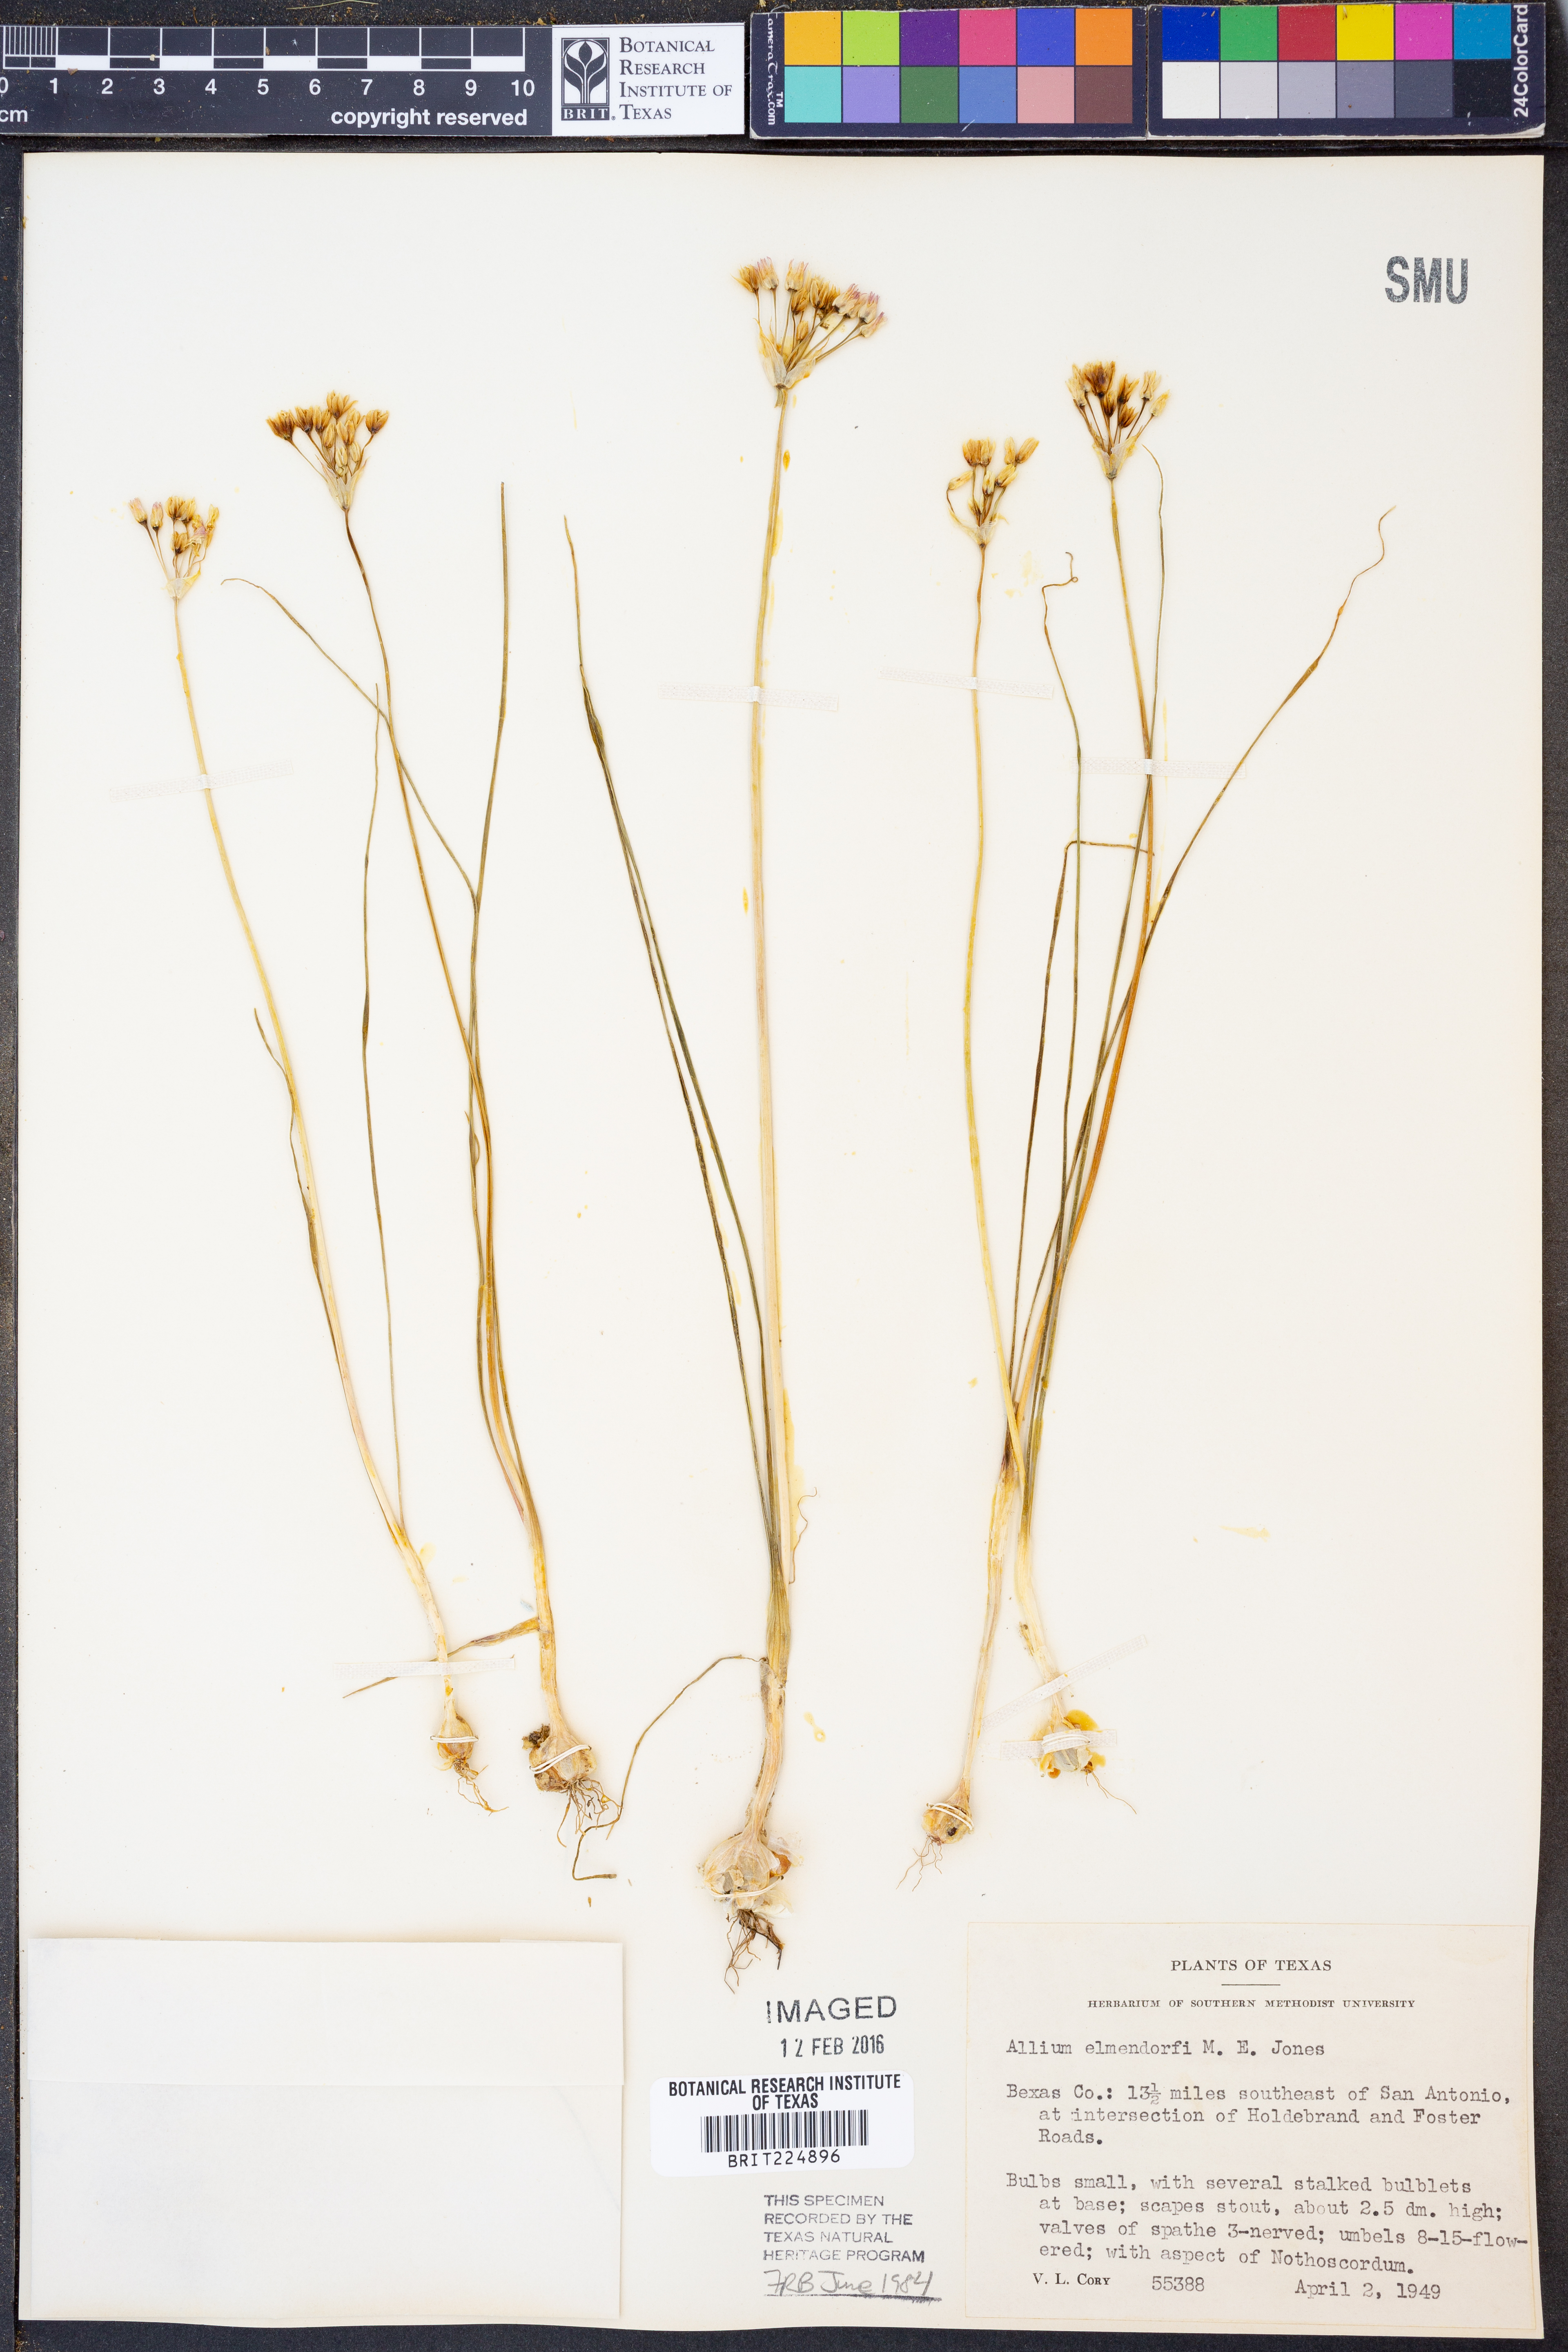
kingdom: Plantae
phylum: Tracheophyta
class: Liliopsida
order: Asparagales
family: Amaryllidaceae
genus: Allium
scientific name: Allium elmendorfii
